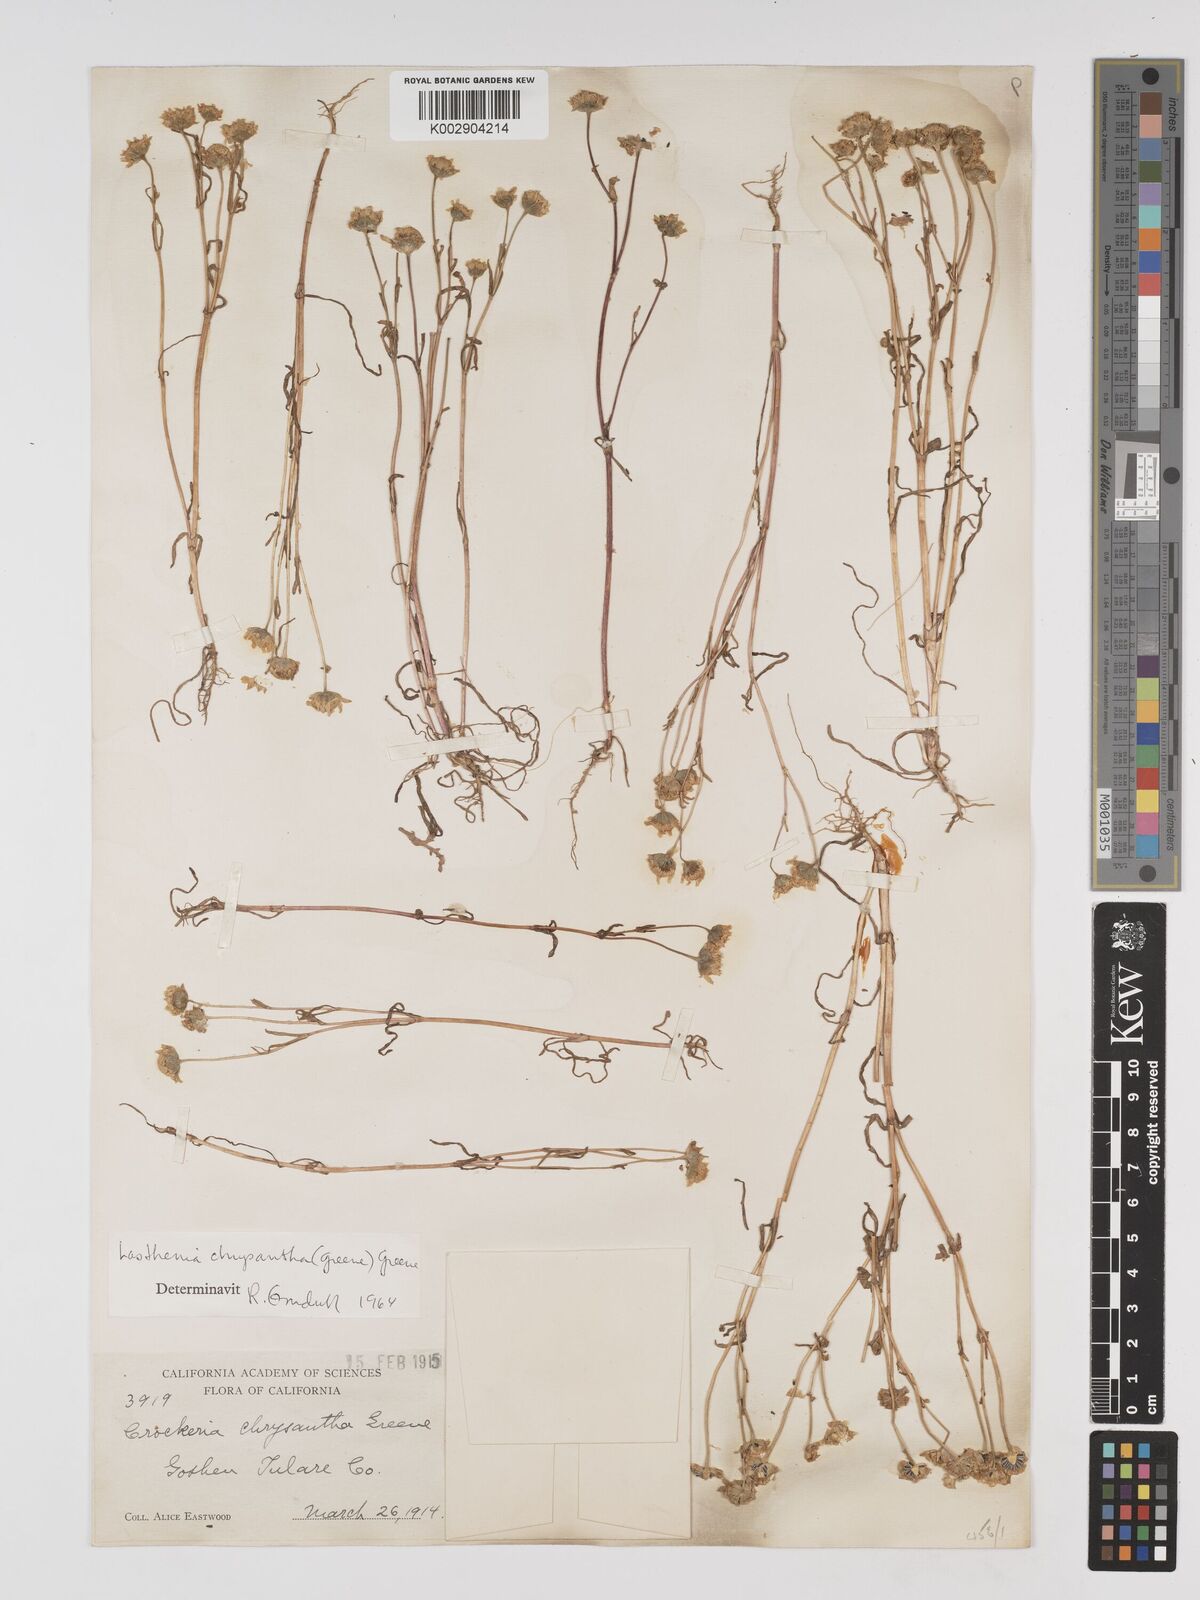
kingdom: Plantae
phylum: Tracheophyta
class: Magnoliopsida
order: Asterales
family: Asteraceae
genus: Lasthenia
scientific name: Lasthenia chrysantha
